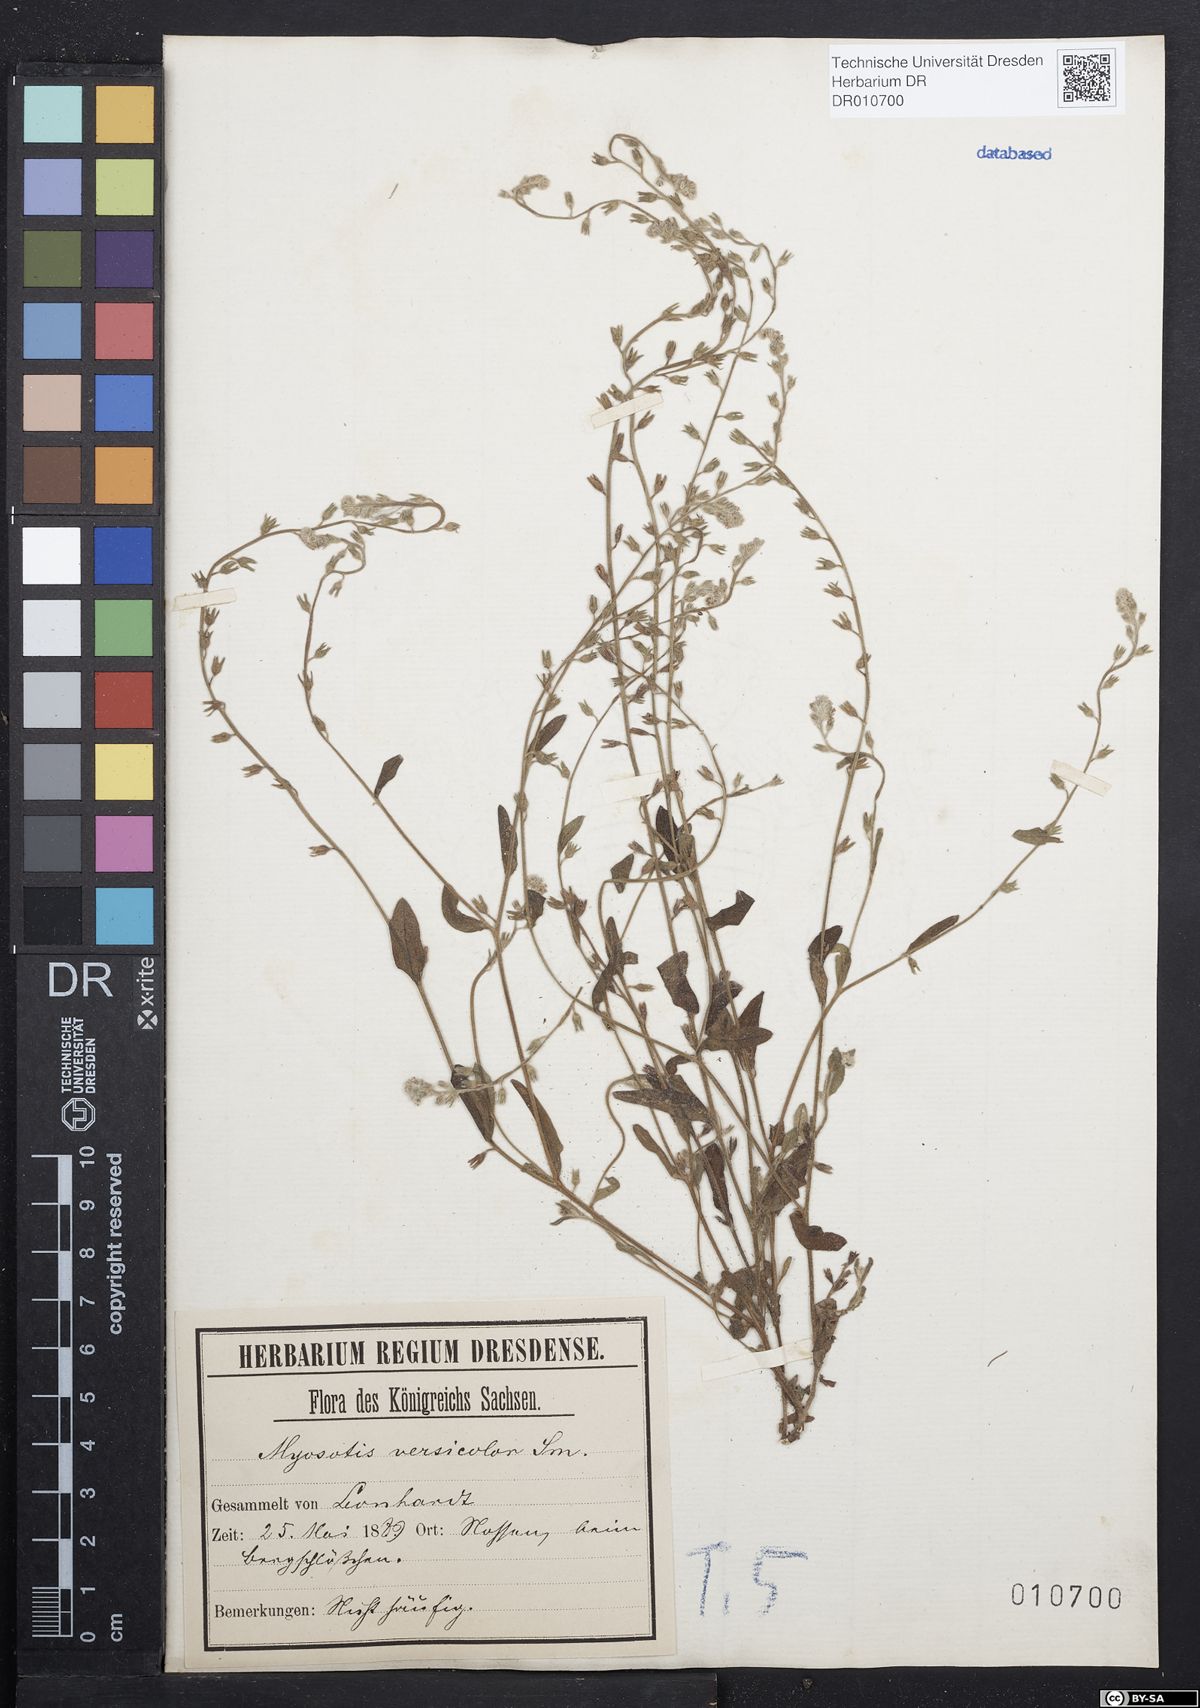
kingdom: Plantae
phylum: Tracheophyta
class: Magnoliopsida
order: Boraginales
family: Boraginaceae
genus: Myosotis
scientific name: Myosotis discolor
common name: Changing forget-me-not
